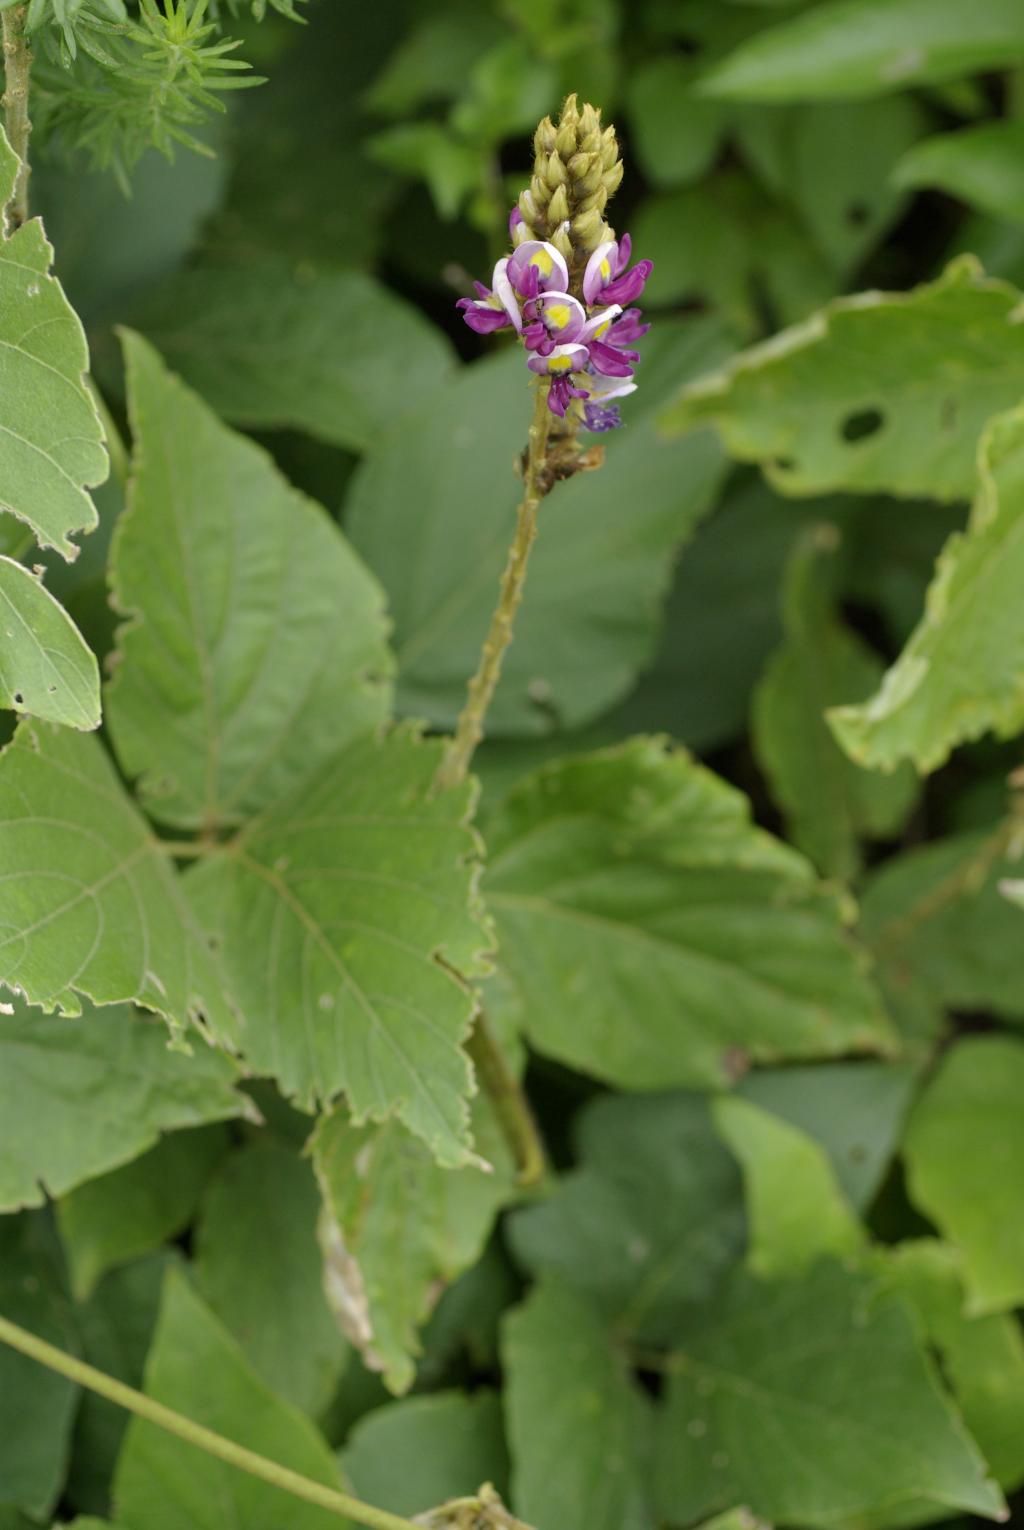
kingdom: Plantae
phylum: Tracheophyta
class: Magnoliopsida
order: Fabales
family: Fabaceae
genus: Pueraria
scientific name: Pueraria montana
